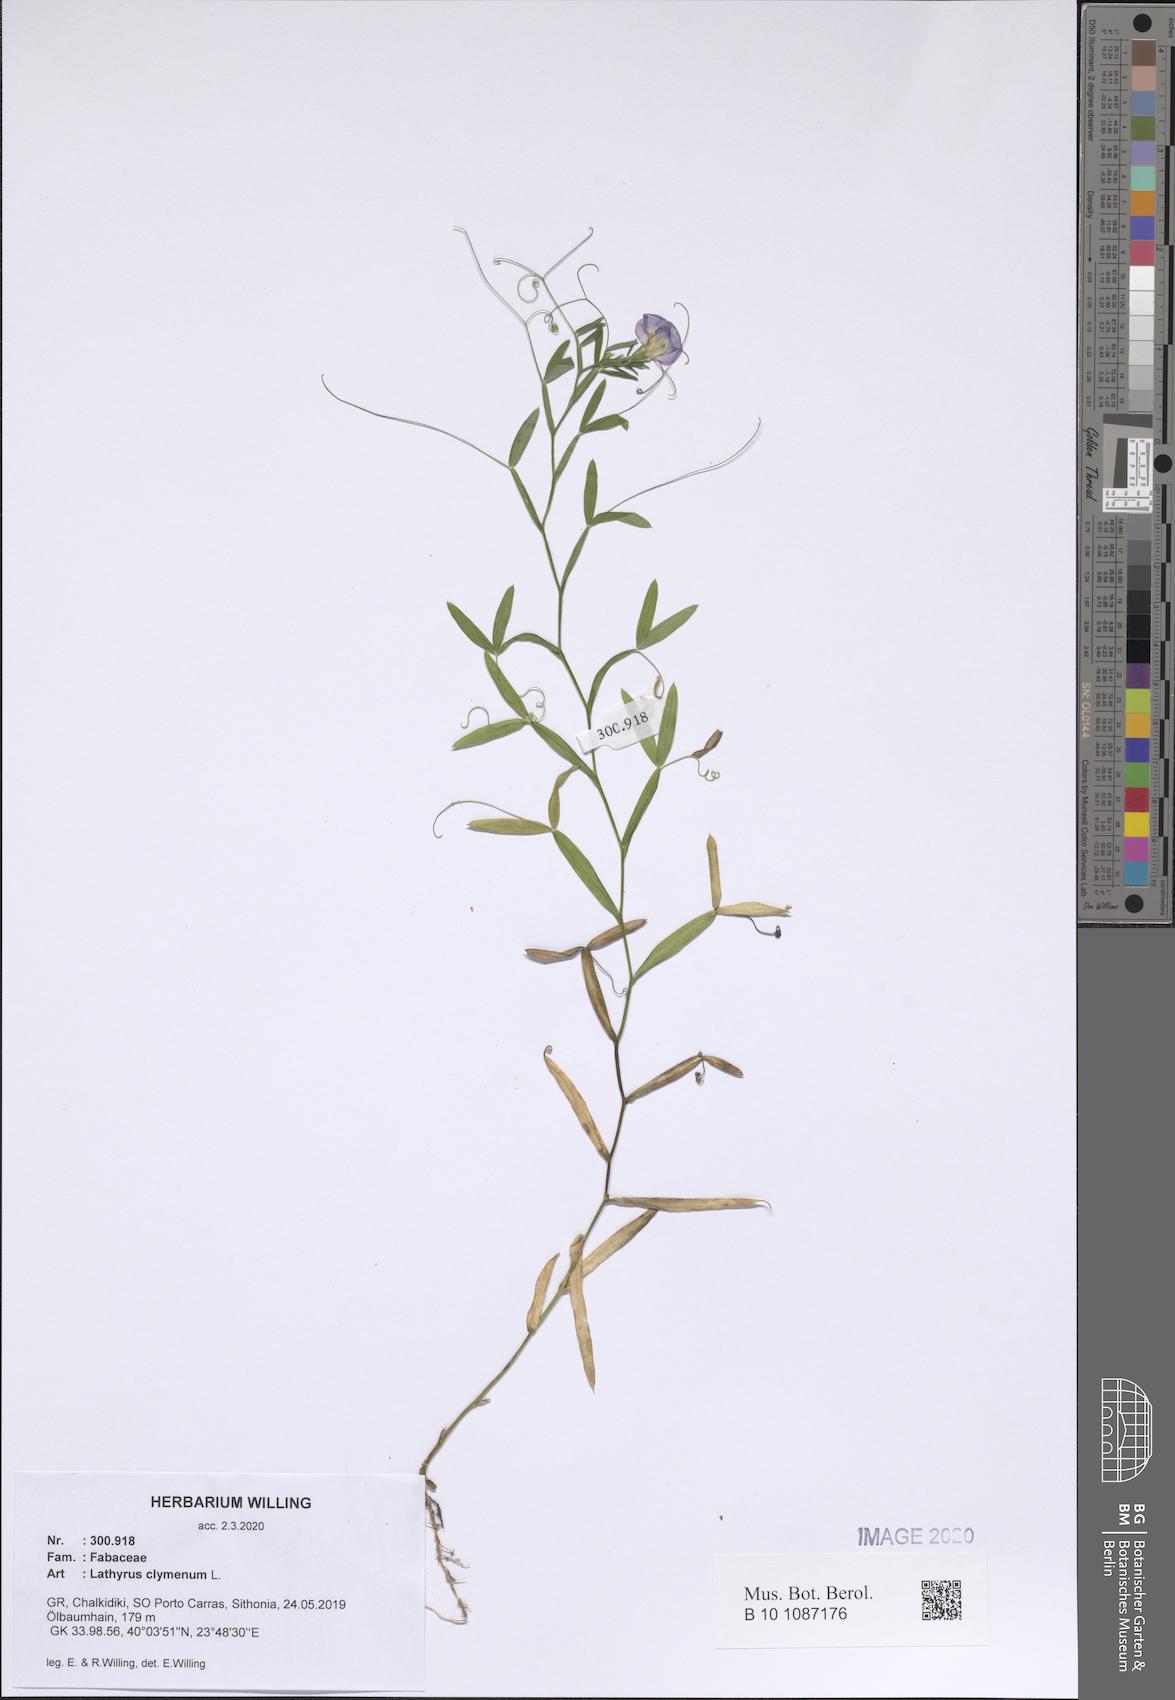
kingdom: Plantae
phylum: Tracheophyta
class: Magnoliopsida
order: Fabales
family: Fabaceae
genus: Lathyrus
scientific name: Lathyrus clymenum
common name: Spanish vetchling
